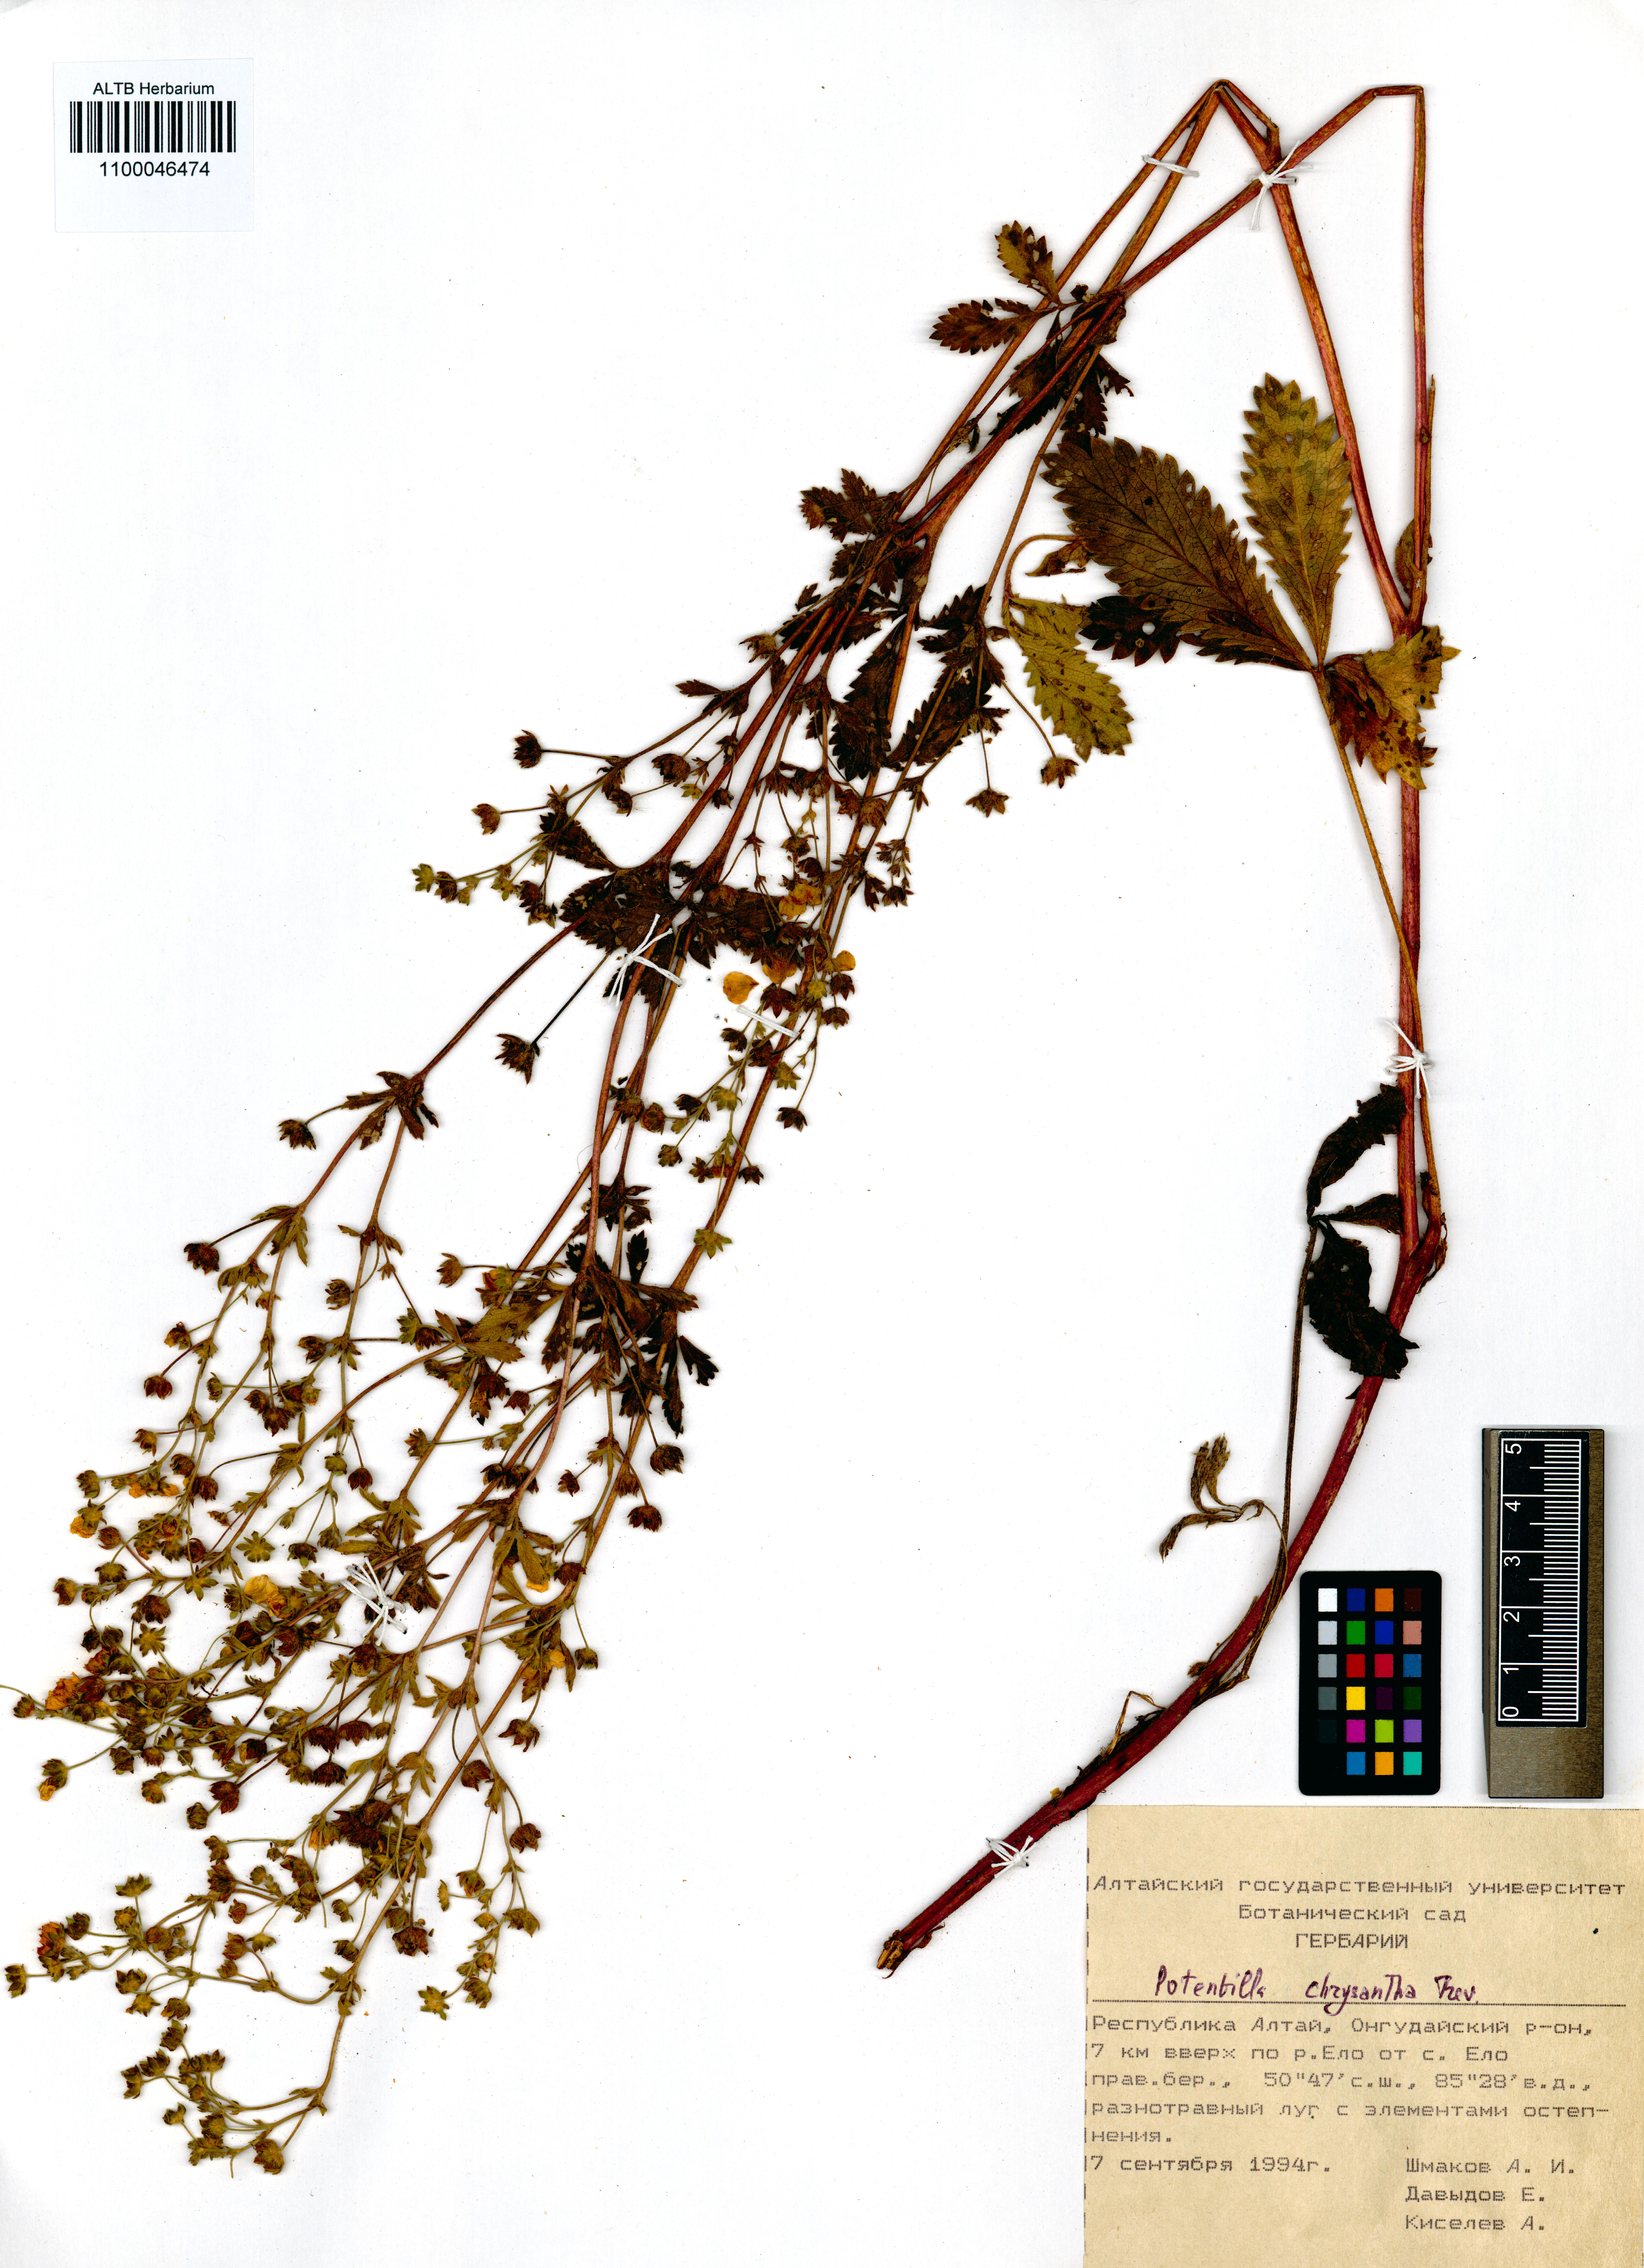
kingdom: Plantae
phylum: Tracheophyta
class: Magnoliopsida
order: Rosales
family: Rosaceae
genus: Potentilla
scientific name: Potentilla chrysantha
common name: Thuringian cinquefoil
